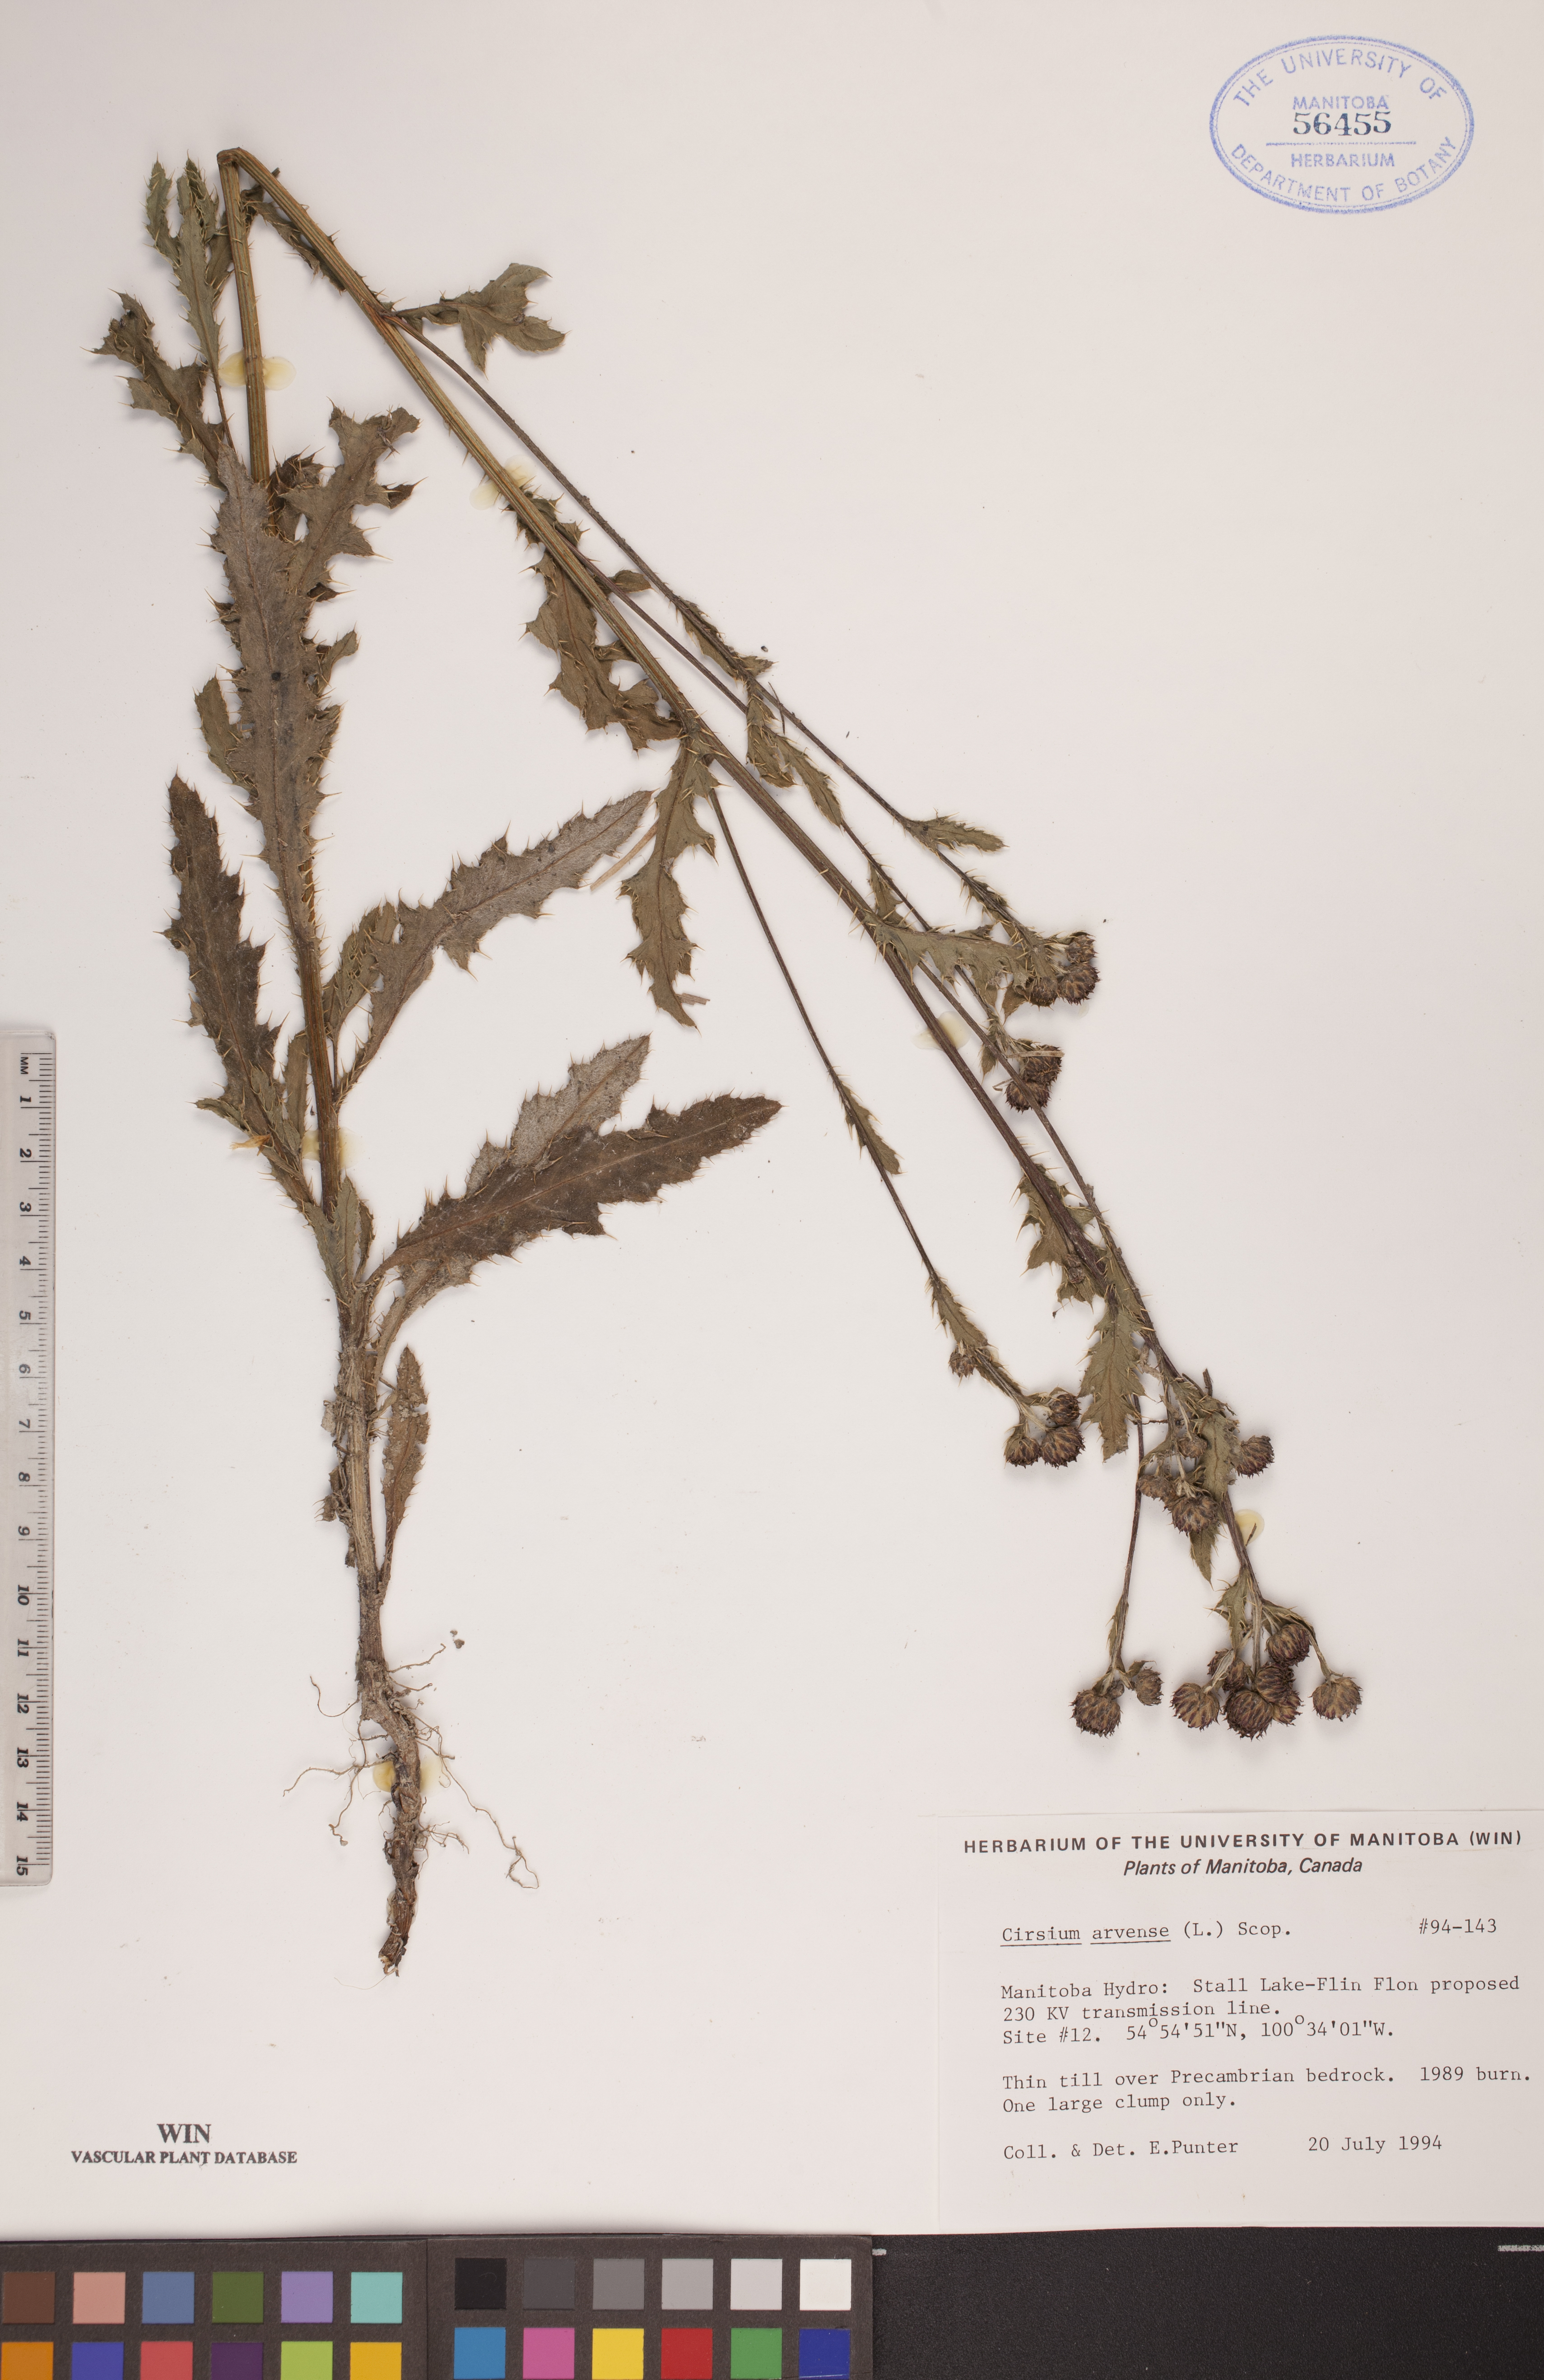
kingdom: Plantae
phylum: Tracheophyta
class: Magnoliopsida
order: Asterales
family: Asteraceae
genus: Cirsium
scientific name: Cirsium arvense
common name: Creeping thistle
